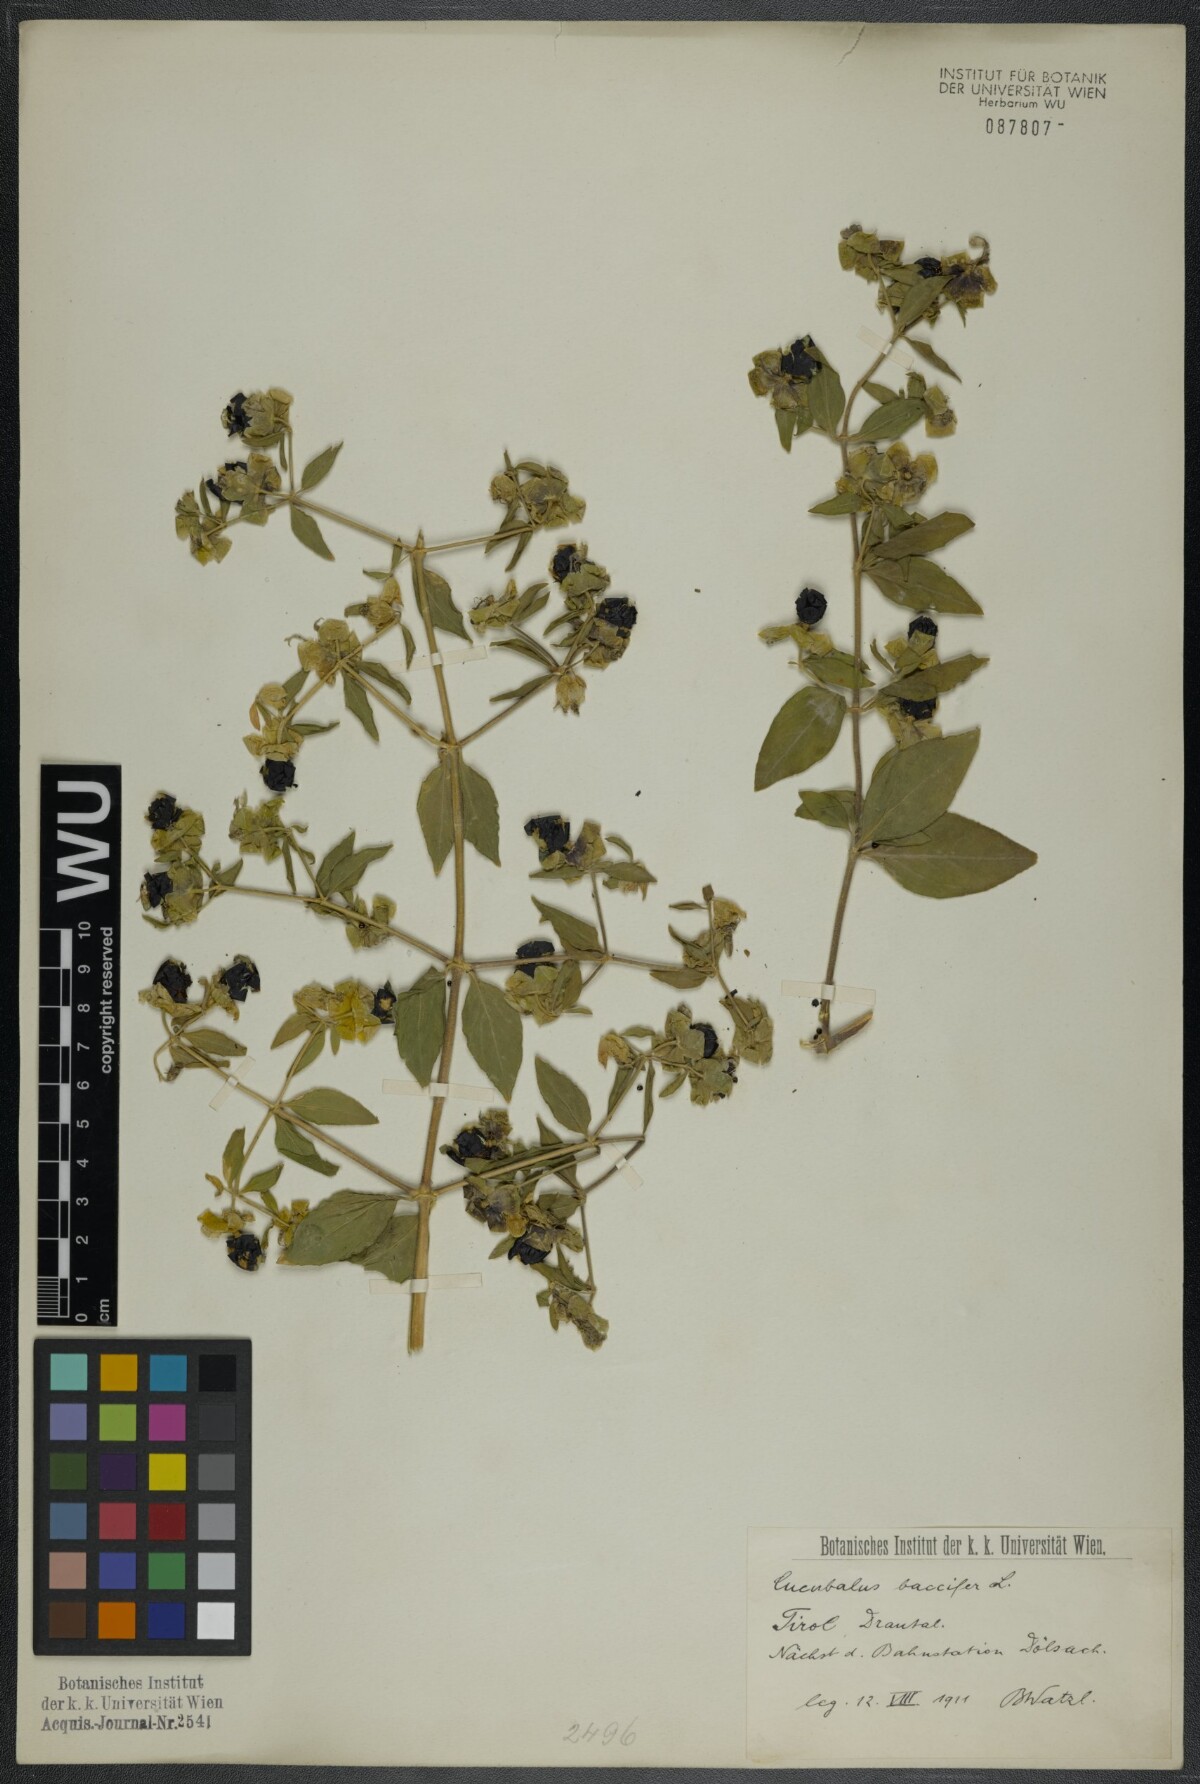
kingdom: Plantae
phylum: Tracheophyta
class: Magnoliopsida
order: Caryophyllales
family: Caryophyllaceae
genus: Silene
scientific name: Silene baccifera
